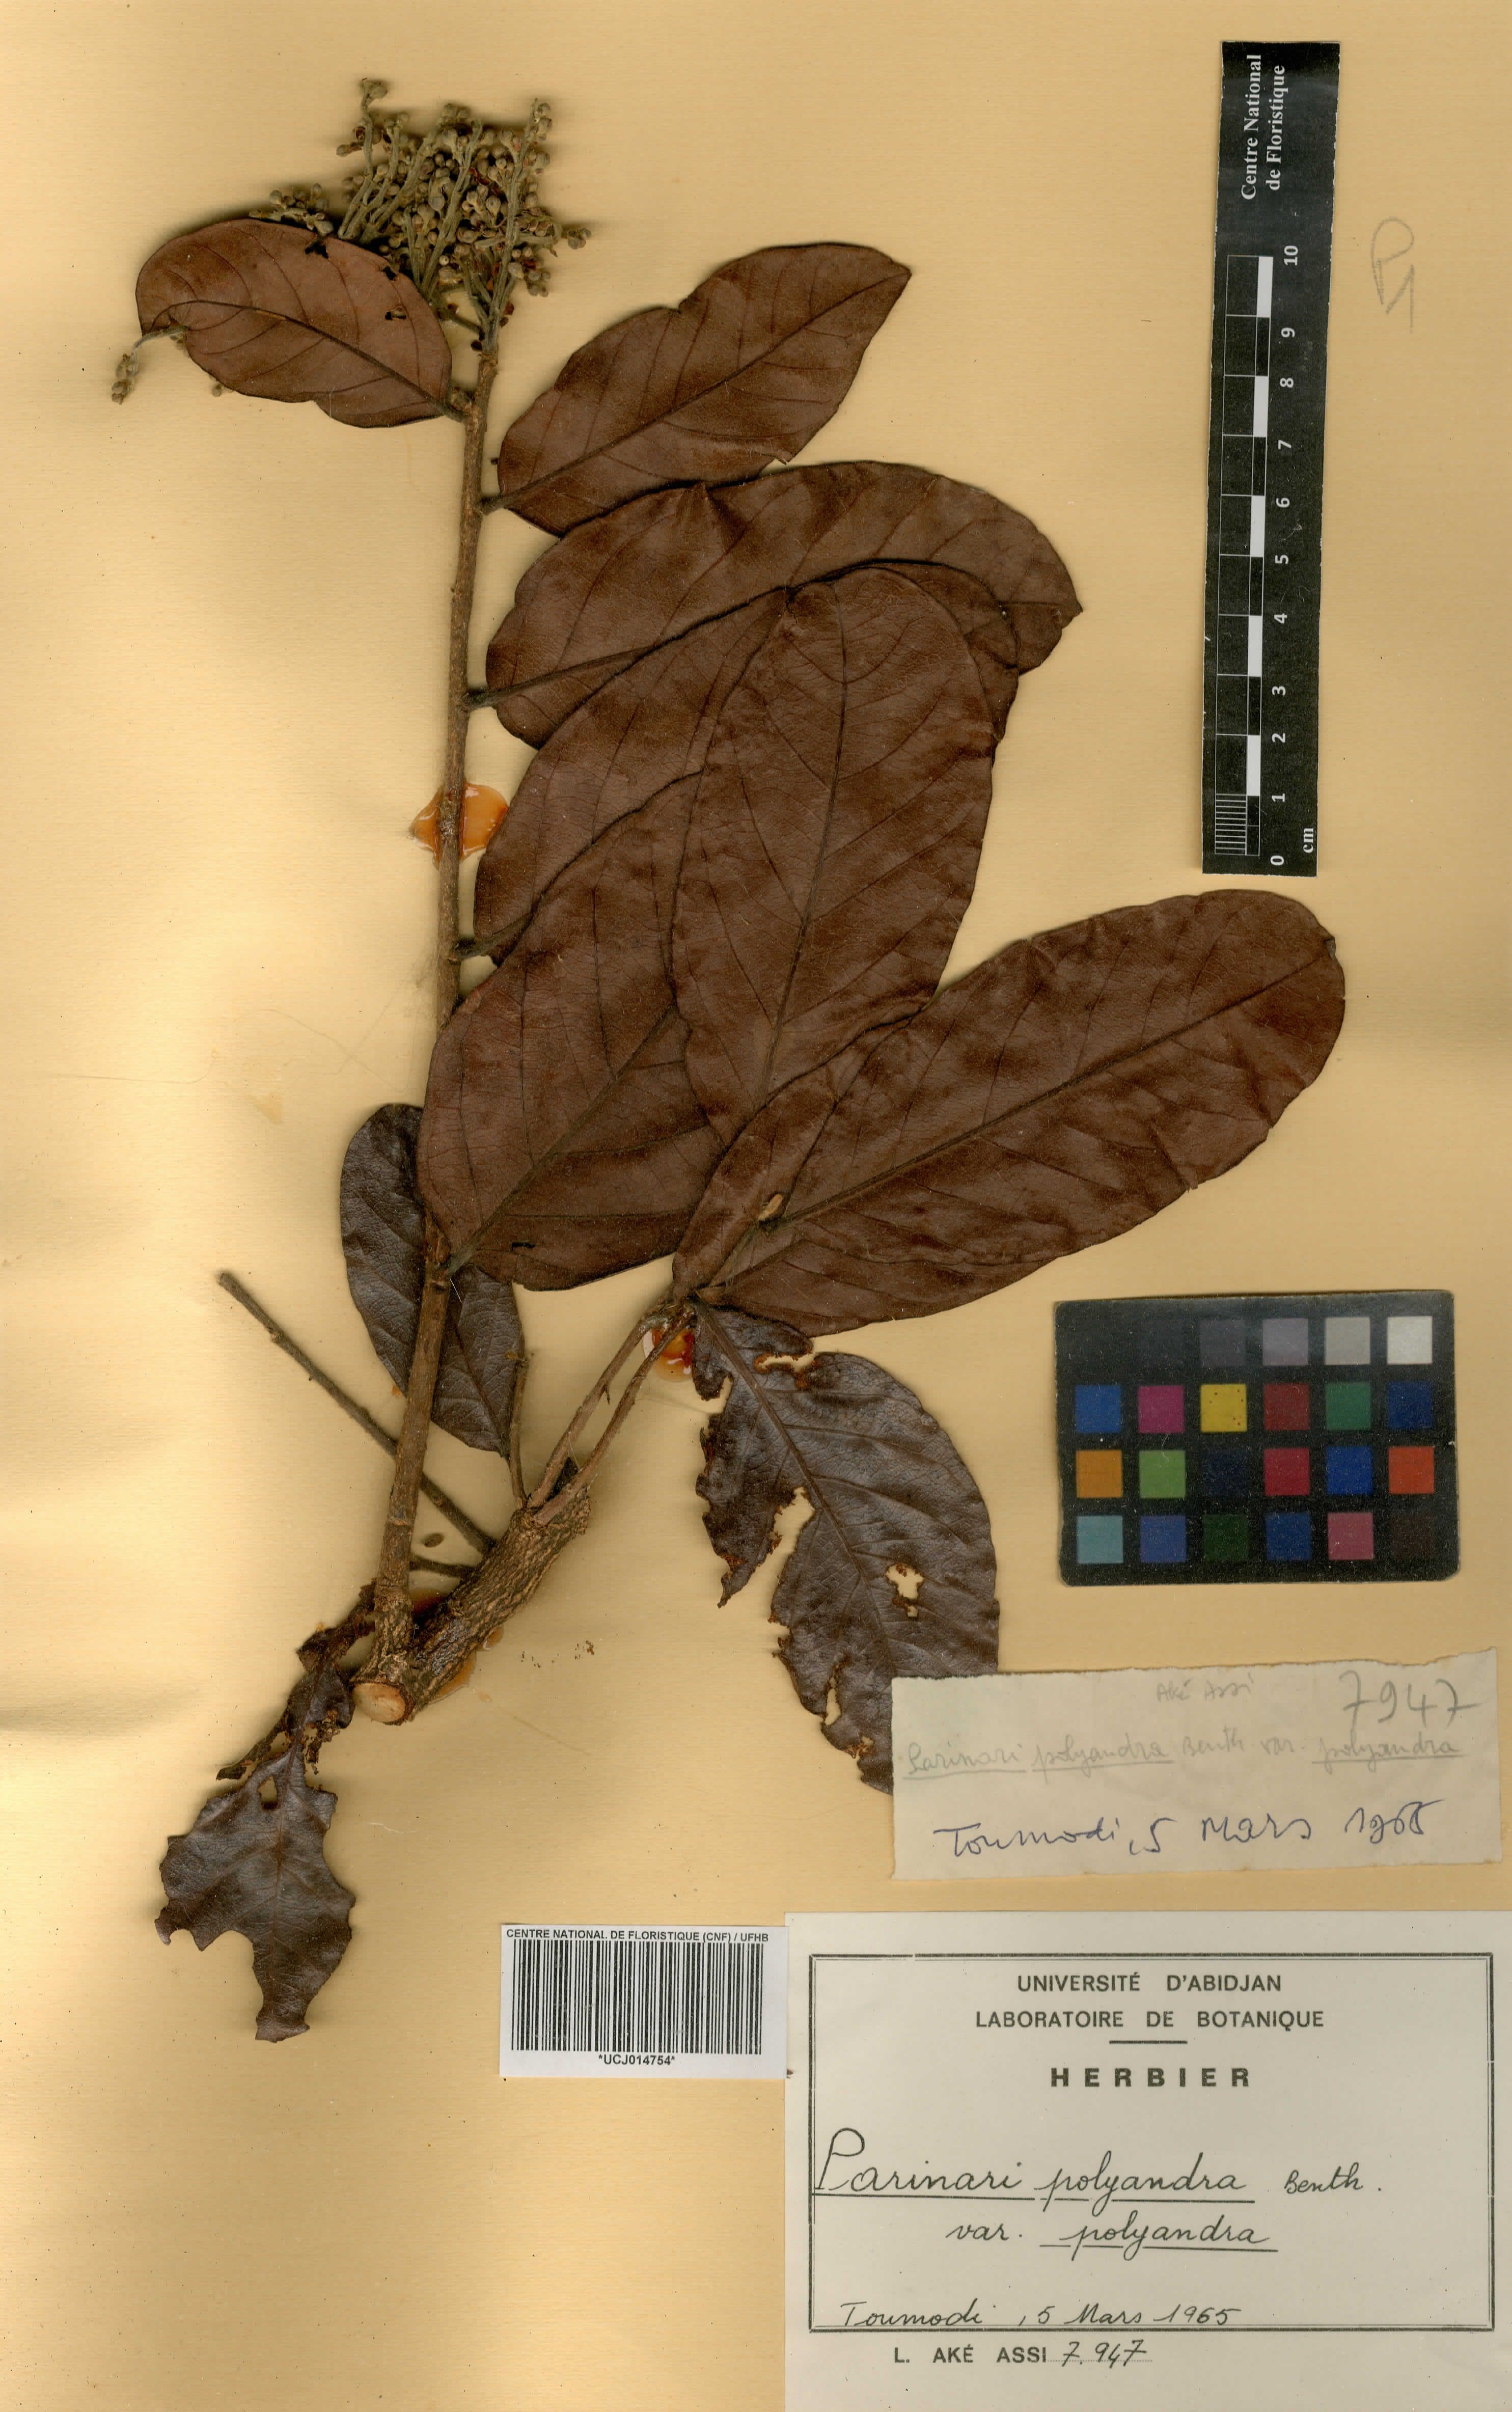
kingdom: Plantae
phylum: Tracheophyta
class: Magnoliopsida
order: Malpighiales
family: Chrysobalanaceae
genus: Maranthes
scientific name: Maranthes polyandra
